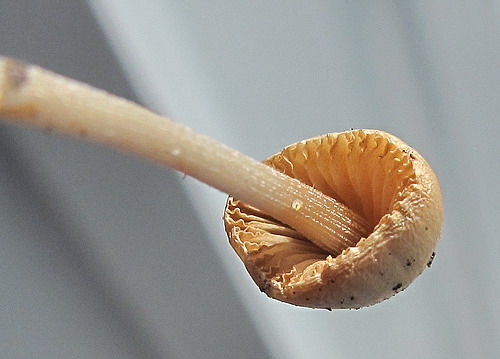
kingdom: Fungi
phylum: Basidiomycota
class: Agaricomycetes
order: Agaricales
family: Bolbitiaceae
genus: Conocybe
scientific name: Conocybe rickenii
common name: møg-keglehat
